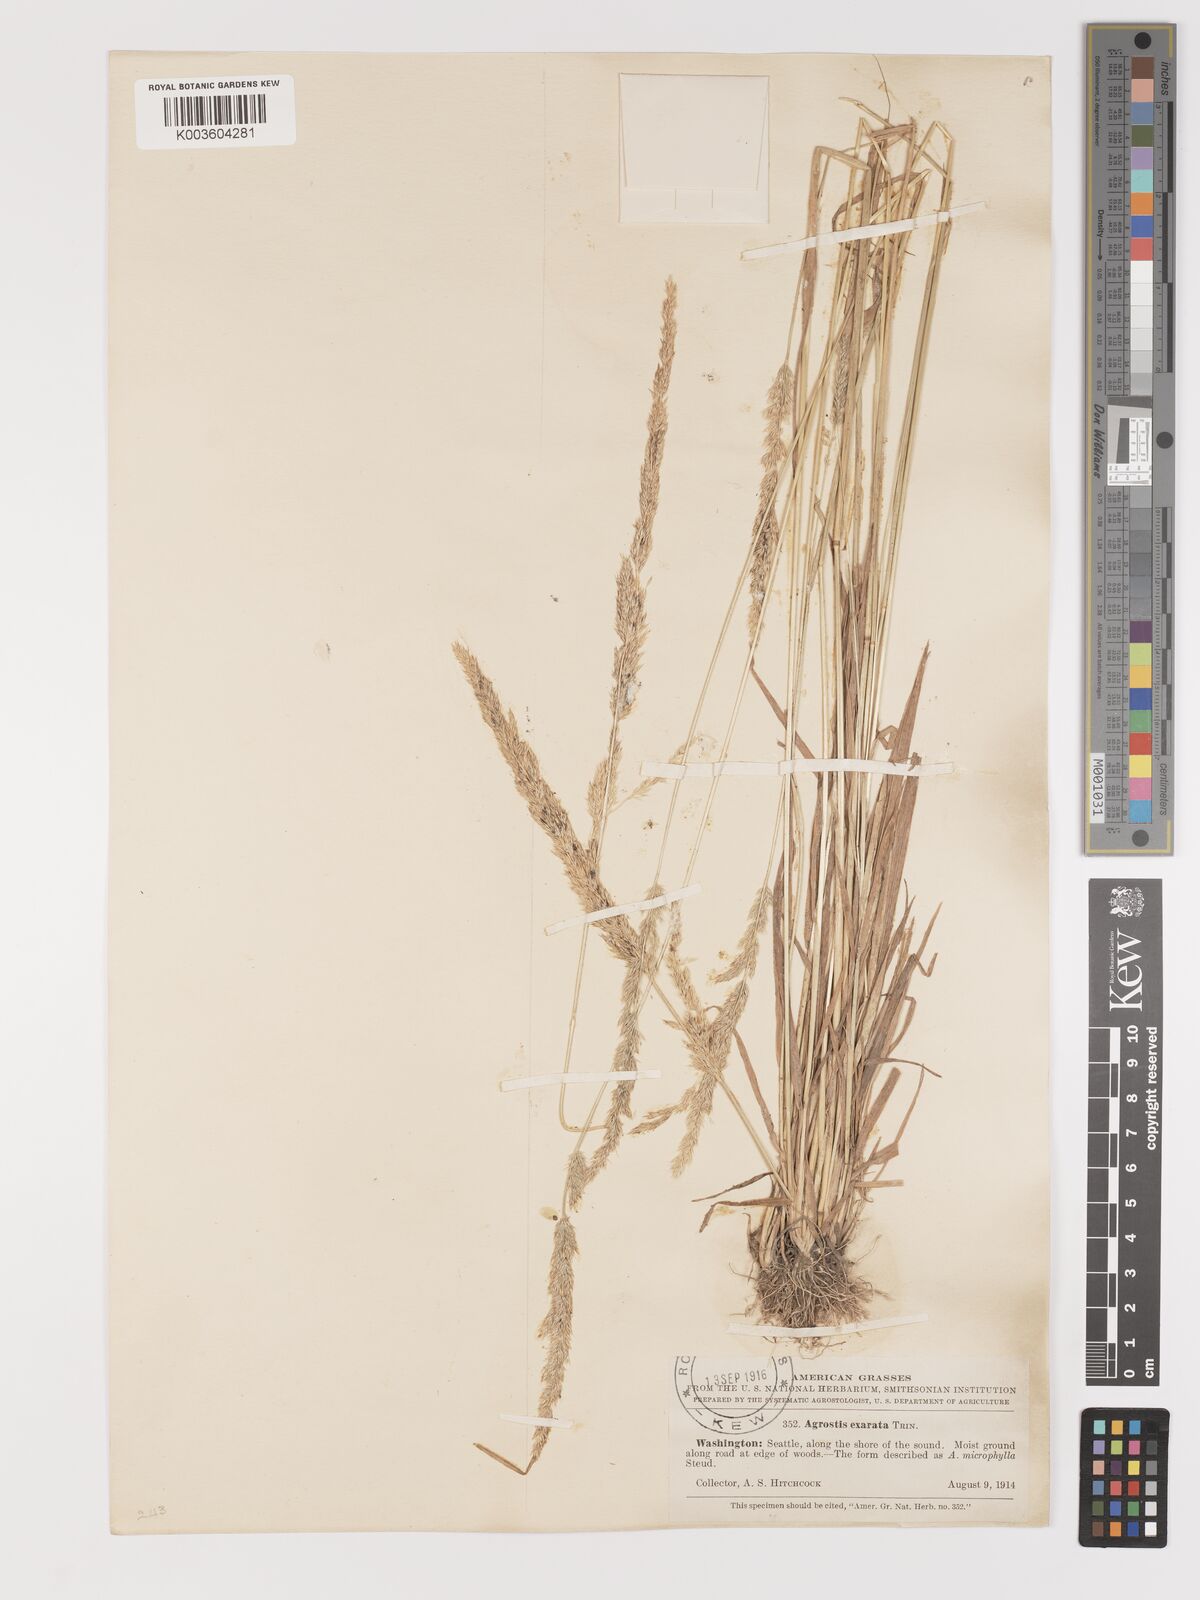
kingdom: Plantae
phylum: Tracheophyta
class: Liliopsida
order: Poales
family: Poaceae
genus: Agrostis
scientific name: Agrostis exarata
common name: Spike bent
